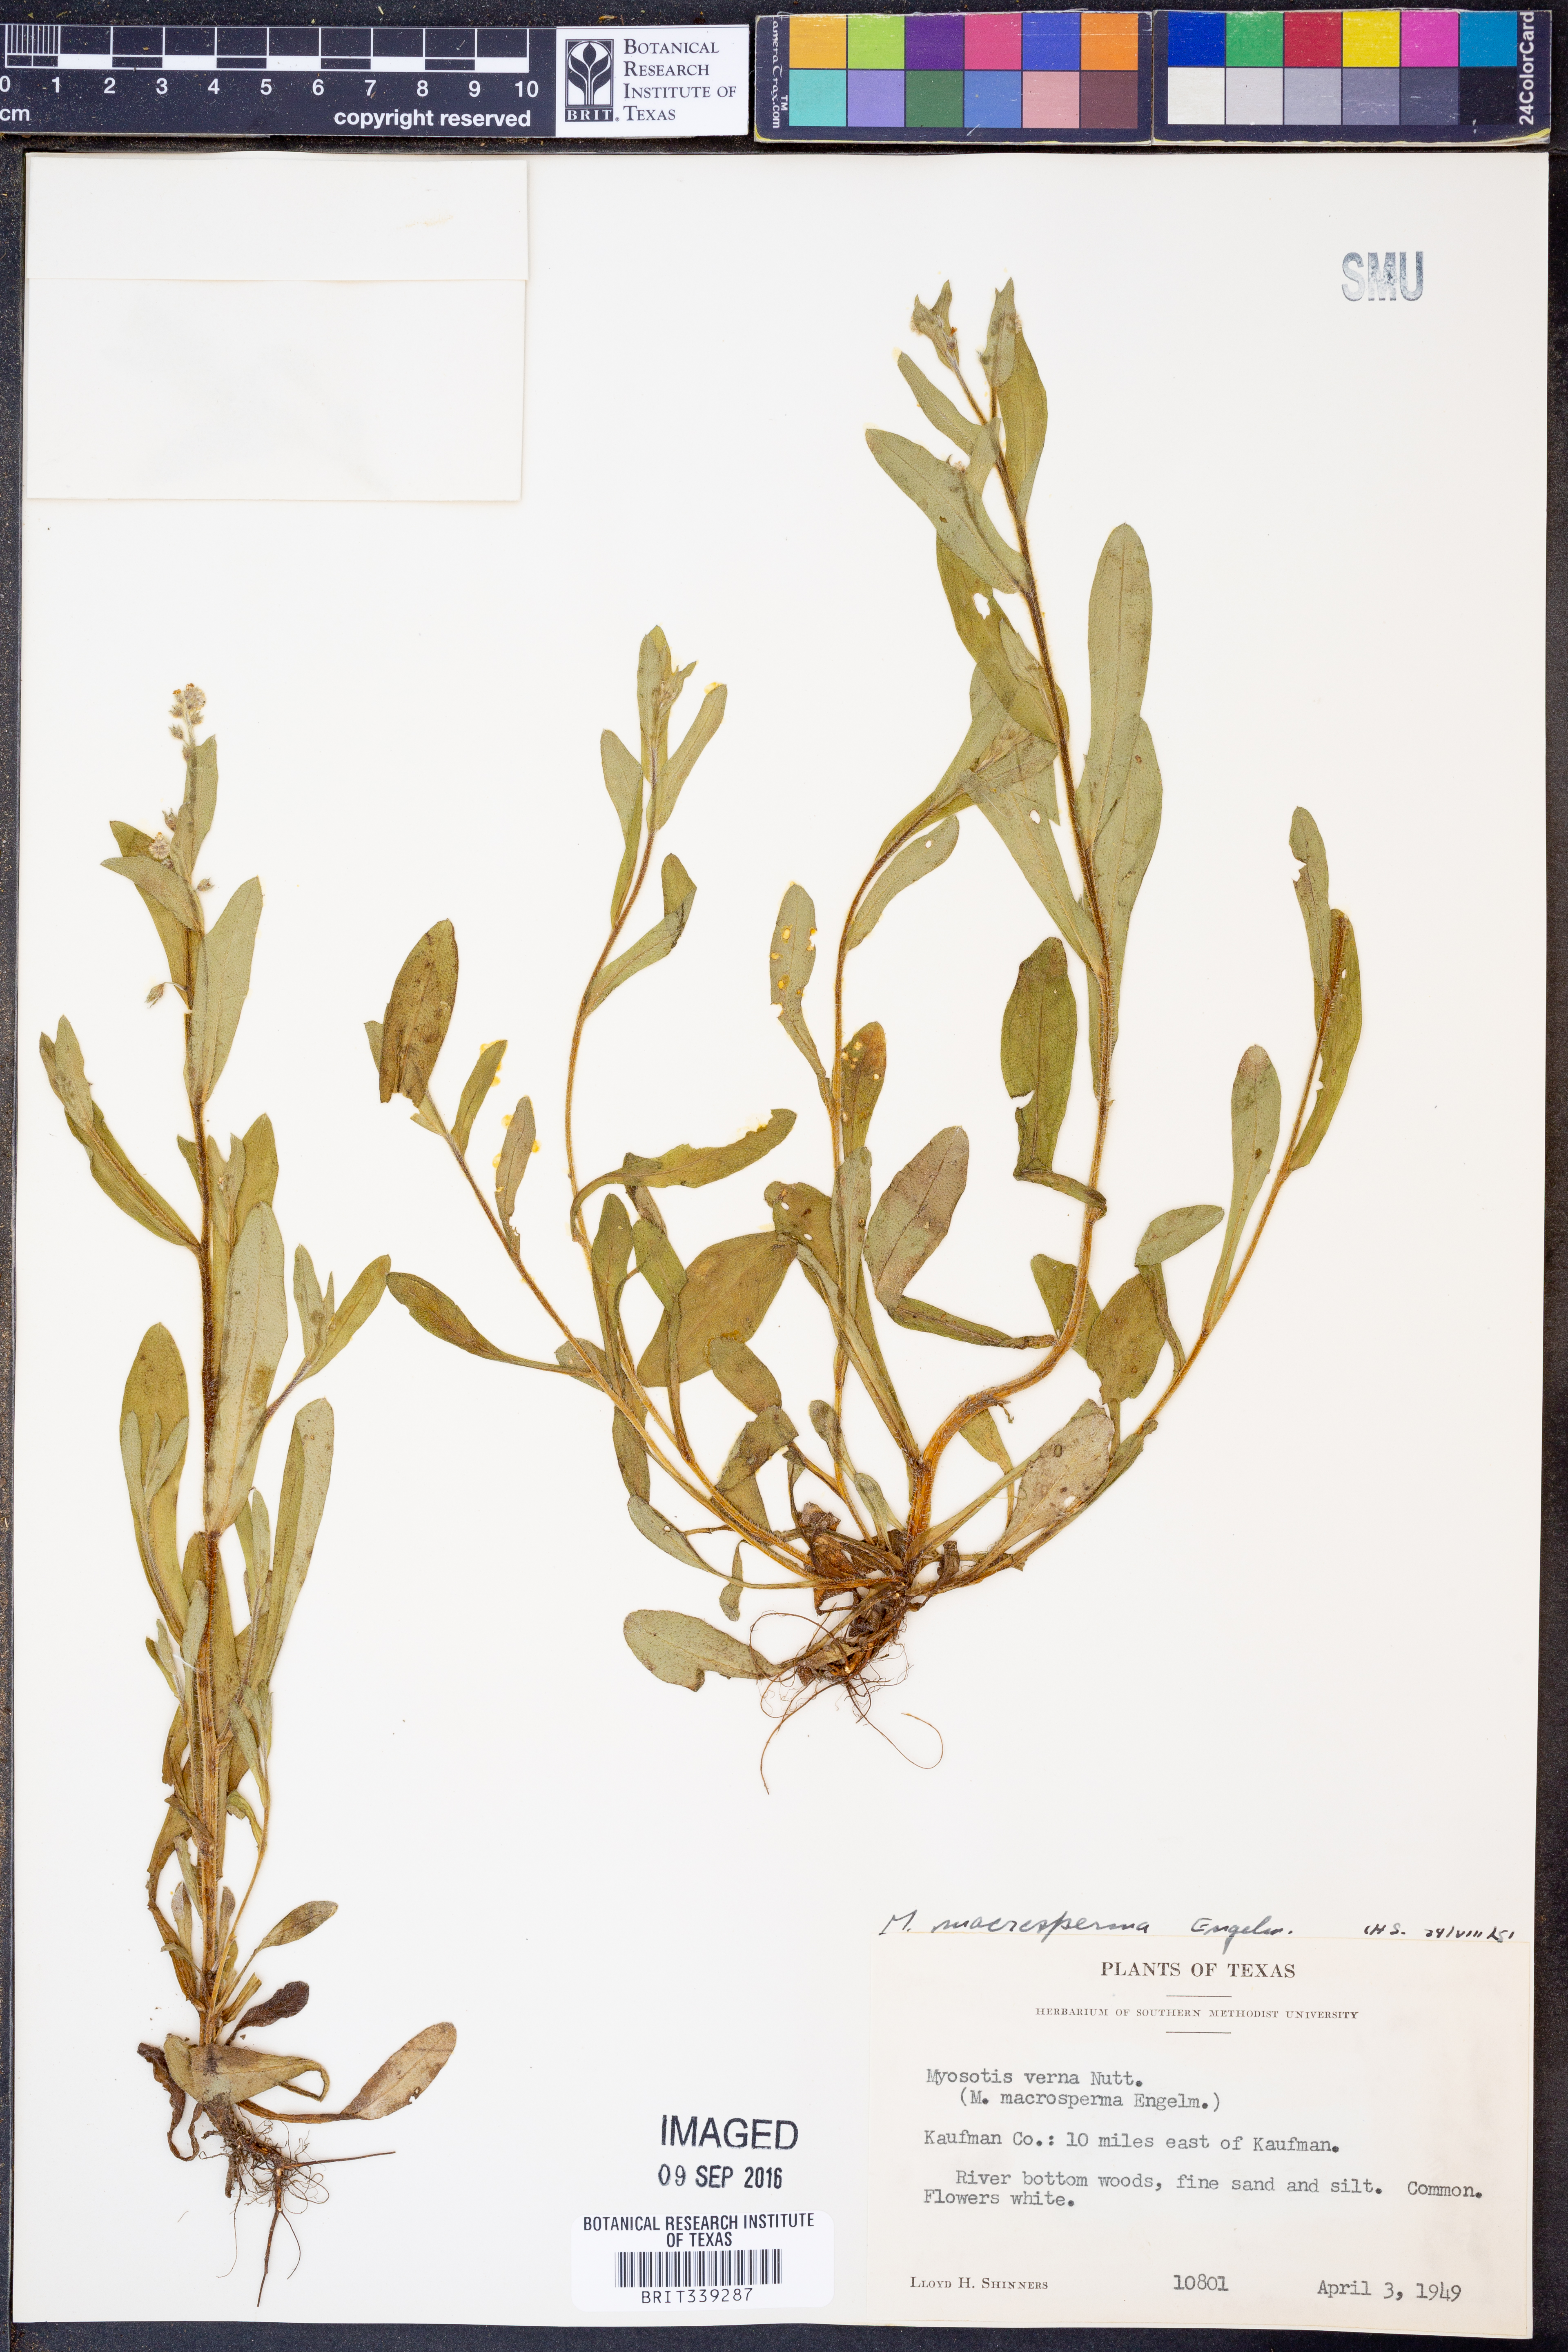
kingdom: Plantae
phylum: Tracheophyta
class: Magnoliopsida
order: Boraginales
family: Boraginaceae
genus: Myosotis
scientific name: Myosotis macrosperma
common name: Large-seed forget-me-not
